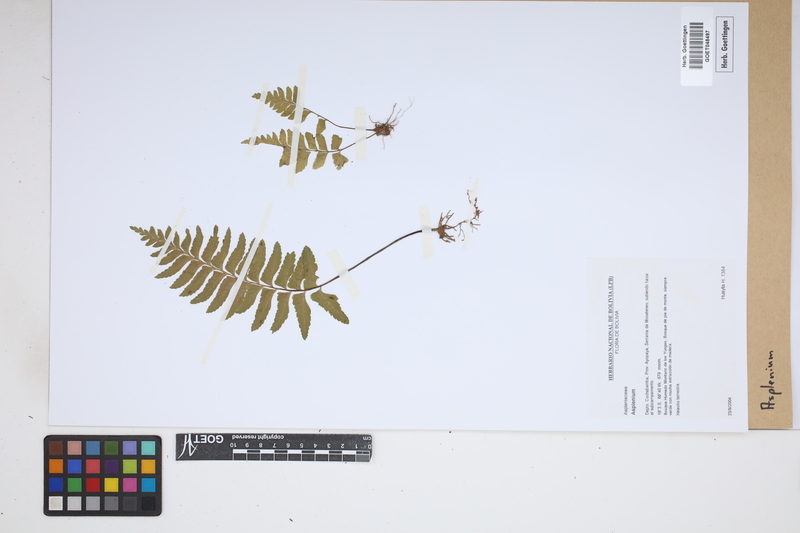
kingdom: Plantae
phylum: Tracheophyta
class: Polypodiopsida
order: Polypodiales
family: Aspleniaceae
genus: Asplenium
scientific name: Asplenium
